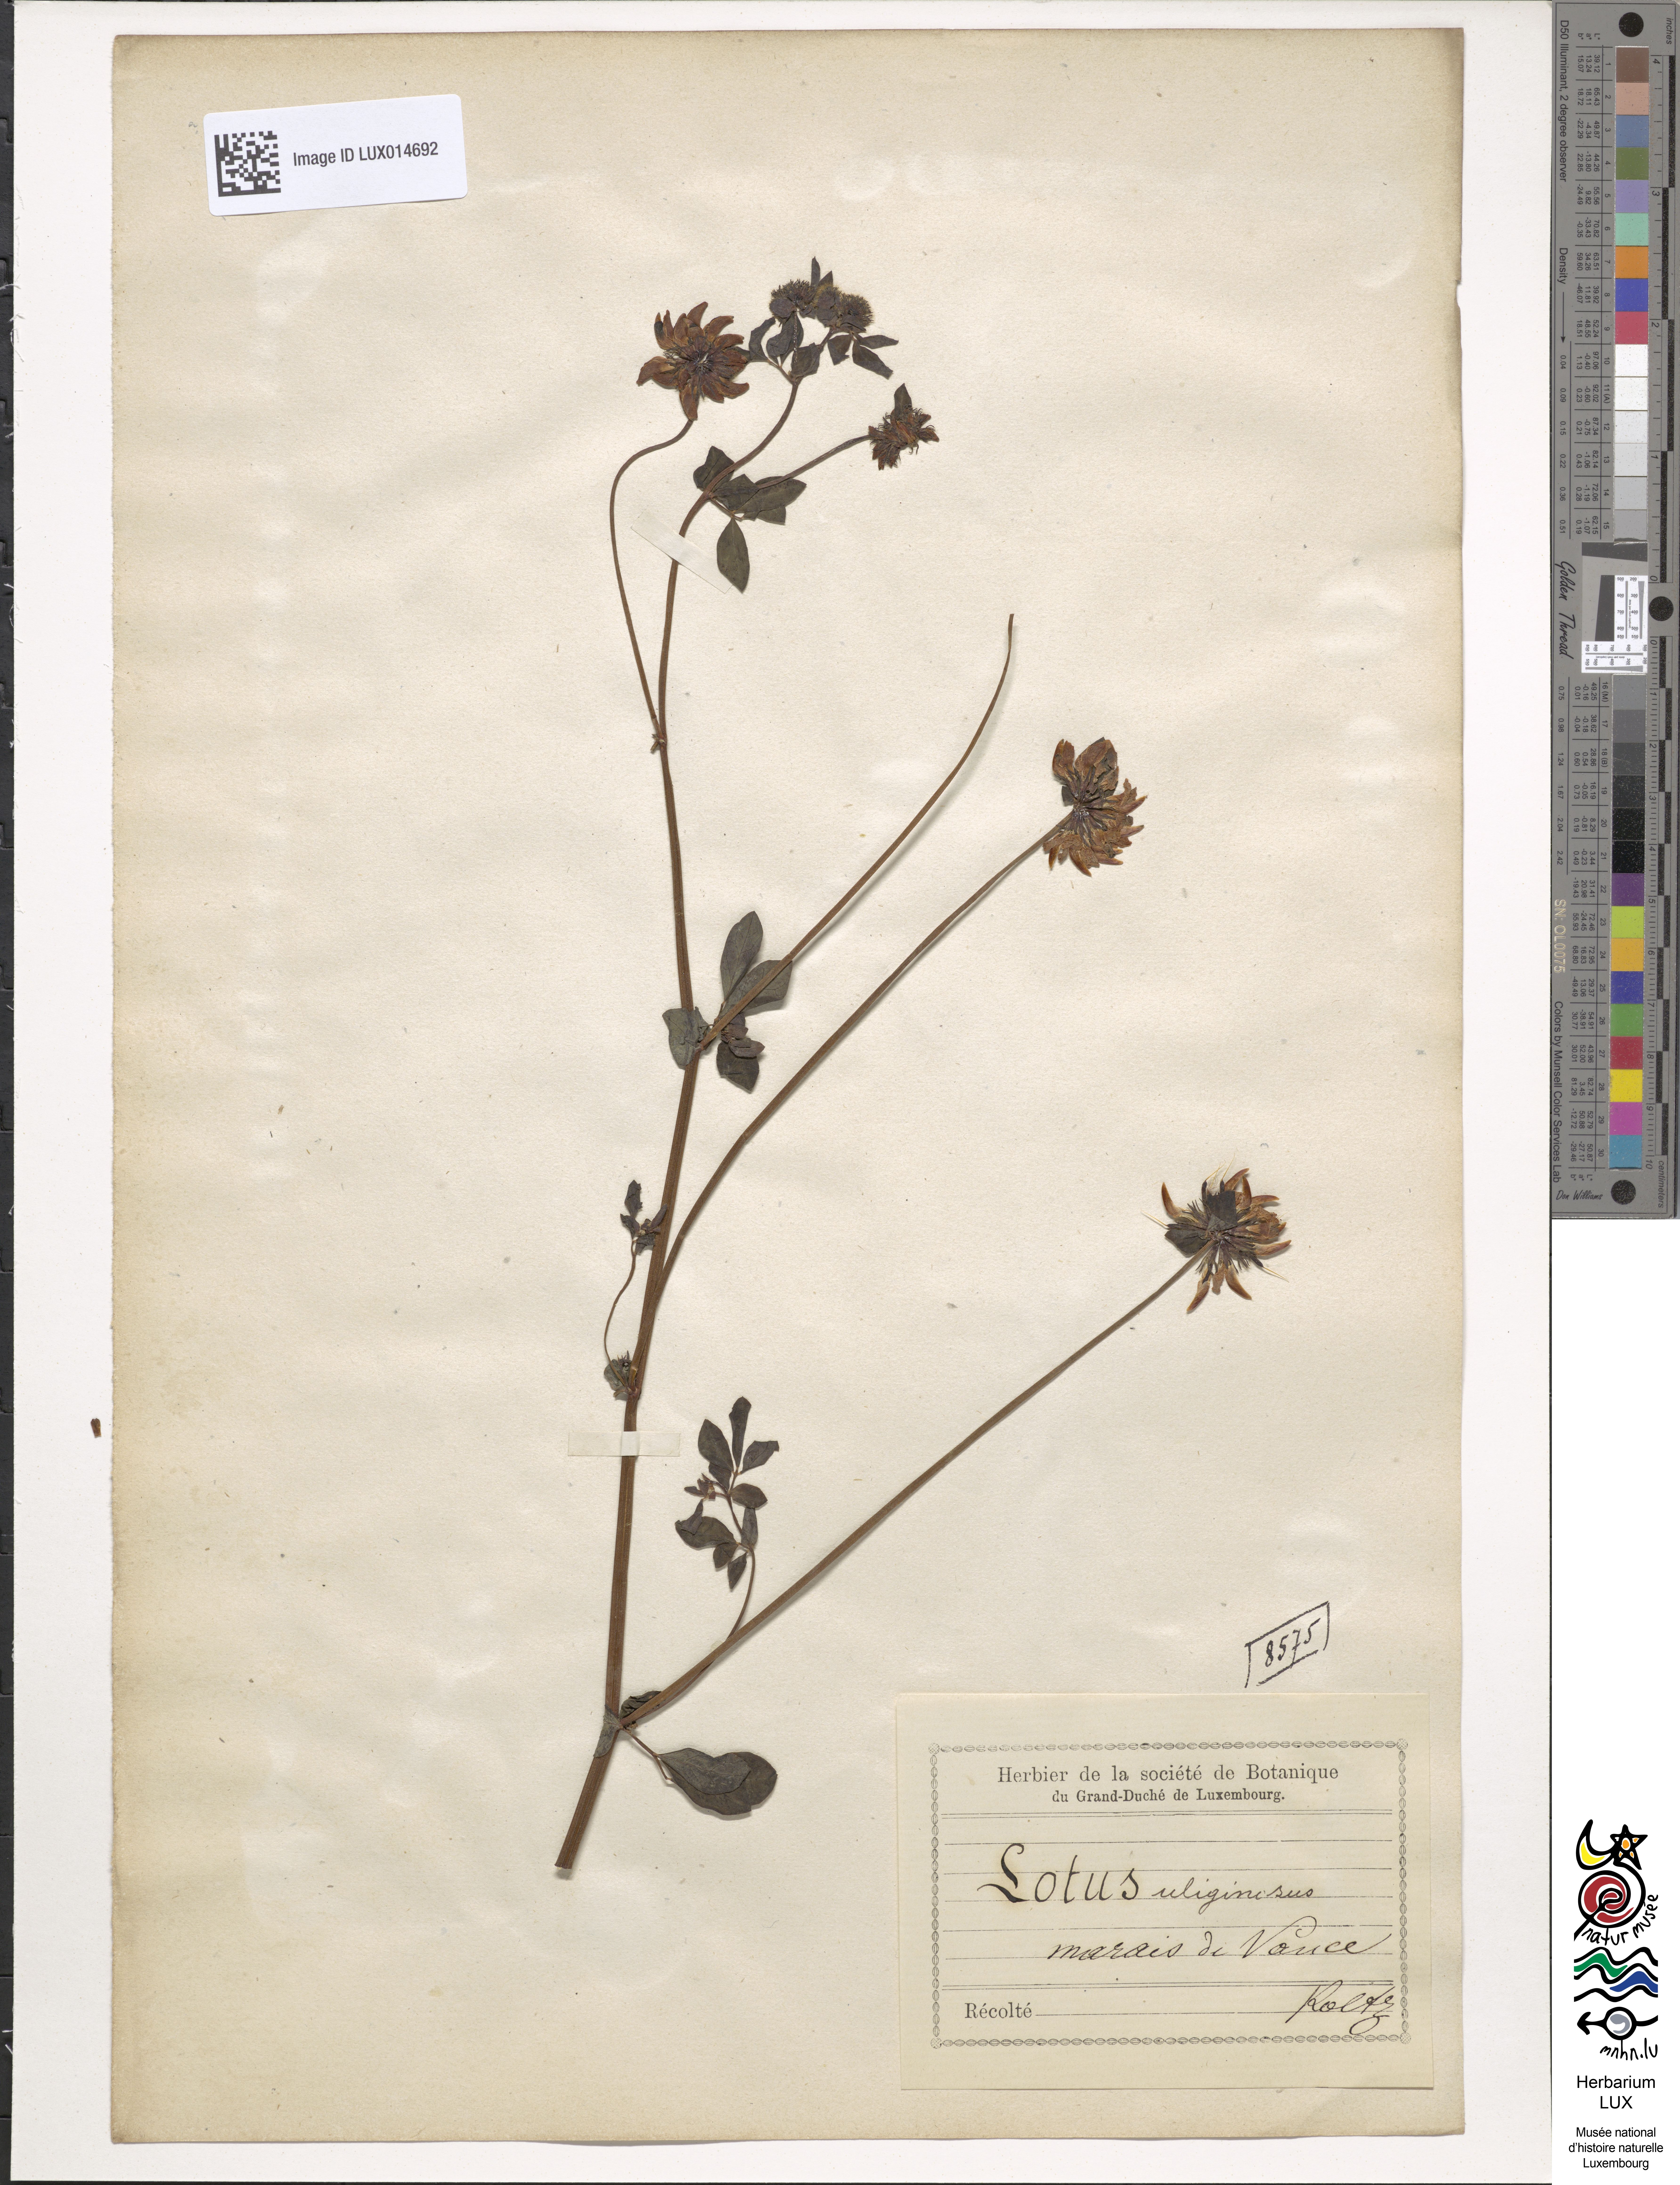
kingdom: Plantae
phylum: Tracheophyta
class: Magnoliopsida
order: Fabales
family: Fabaceae
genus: Lotus
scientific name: Lotus pedunculatus
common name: Greater birdsfoot-trefoil
